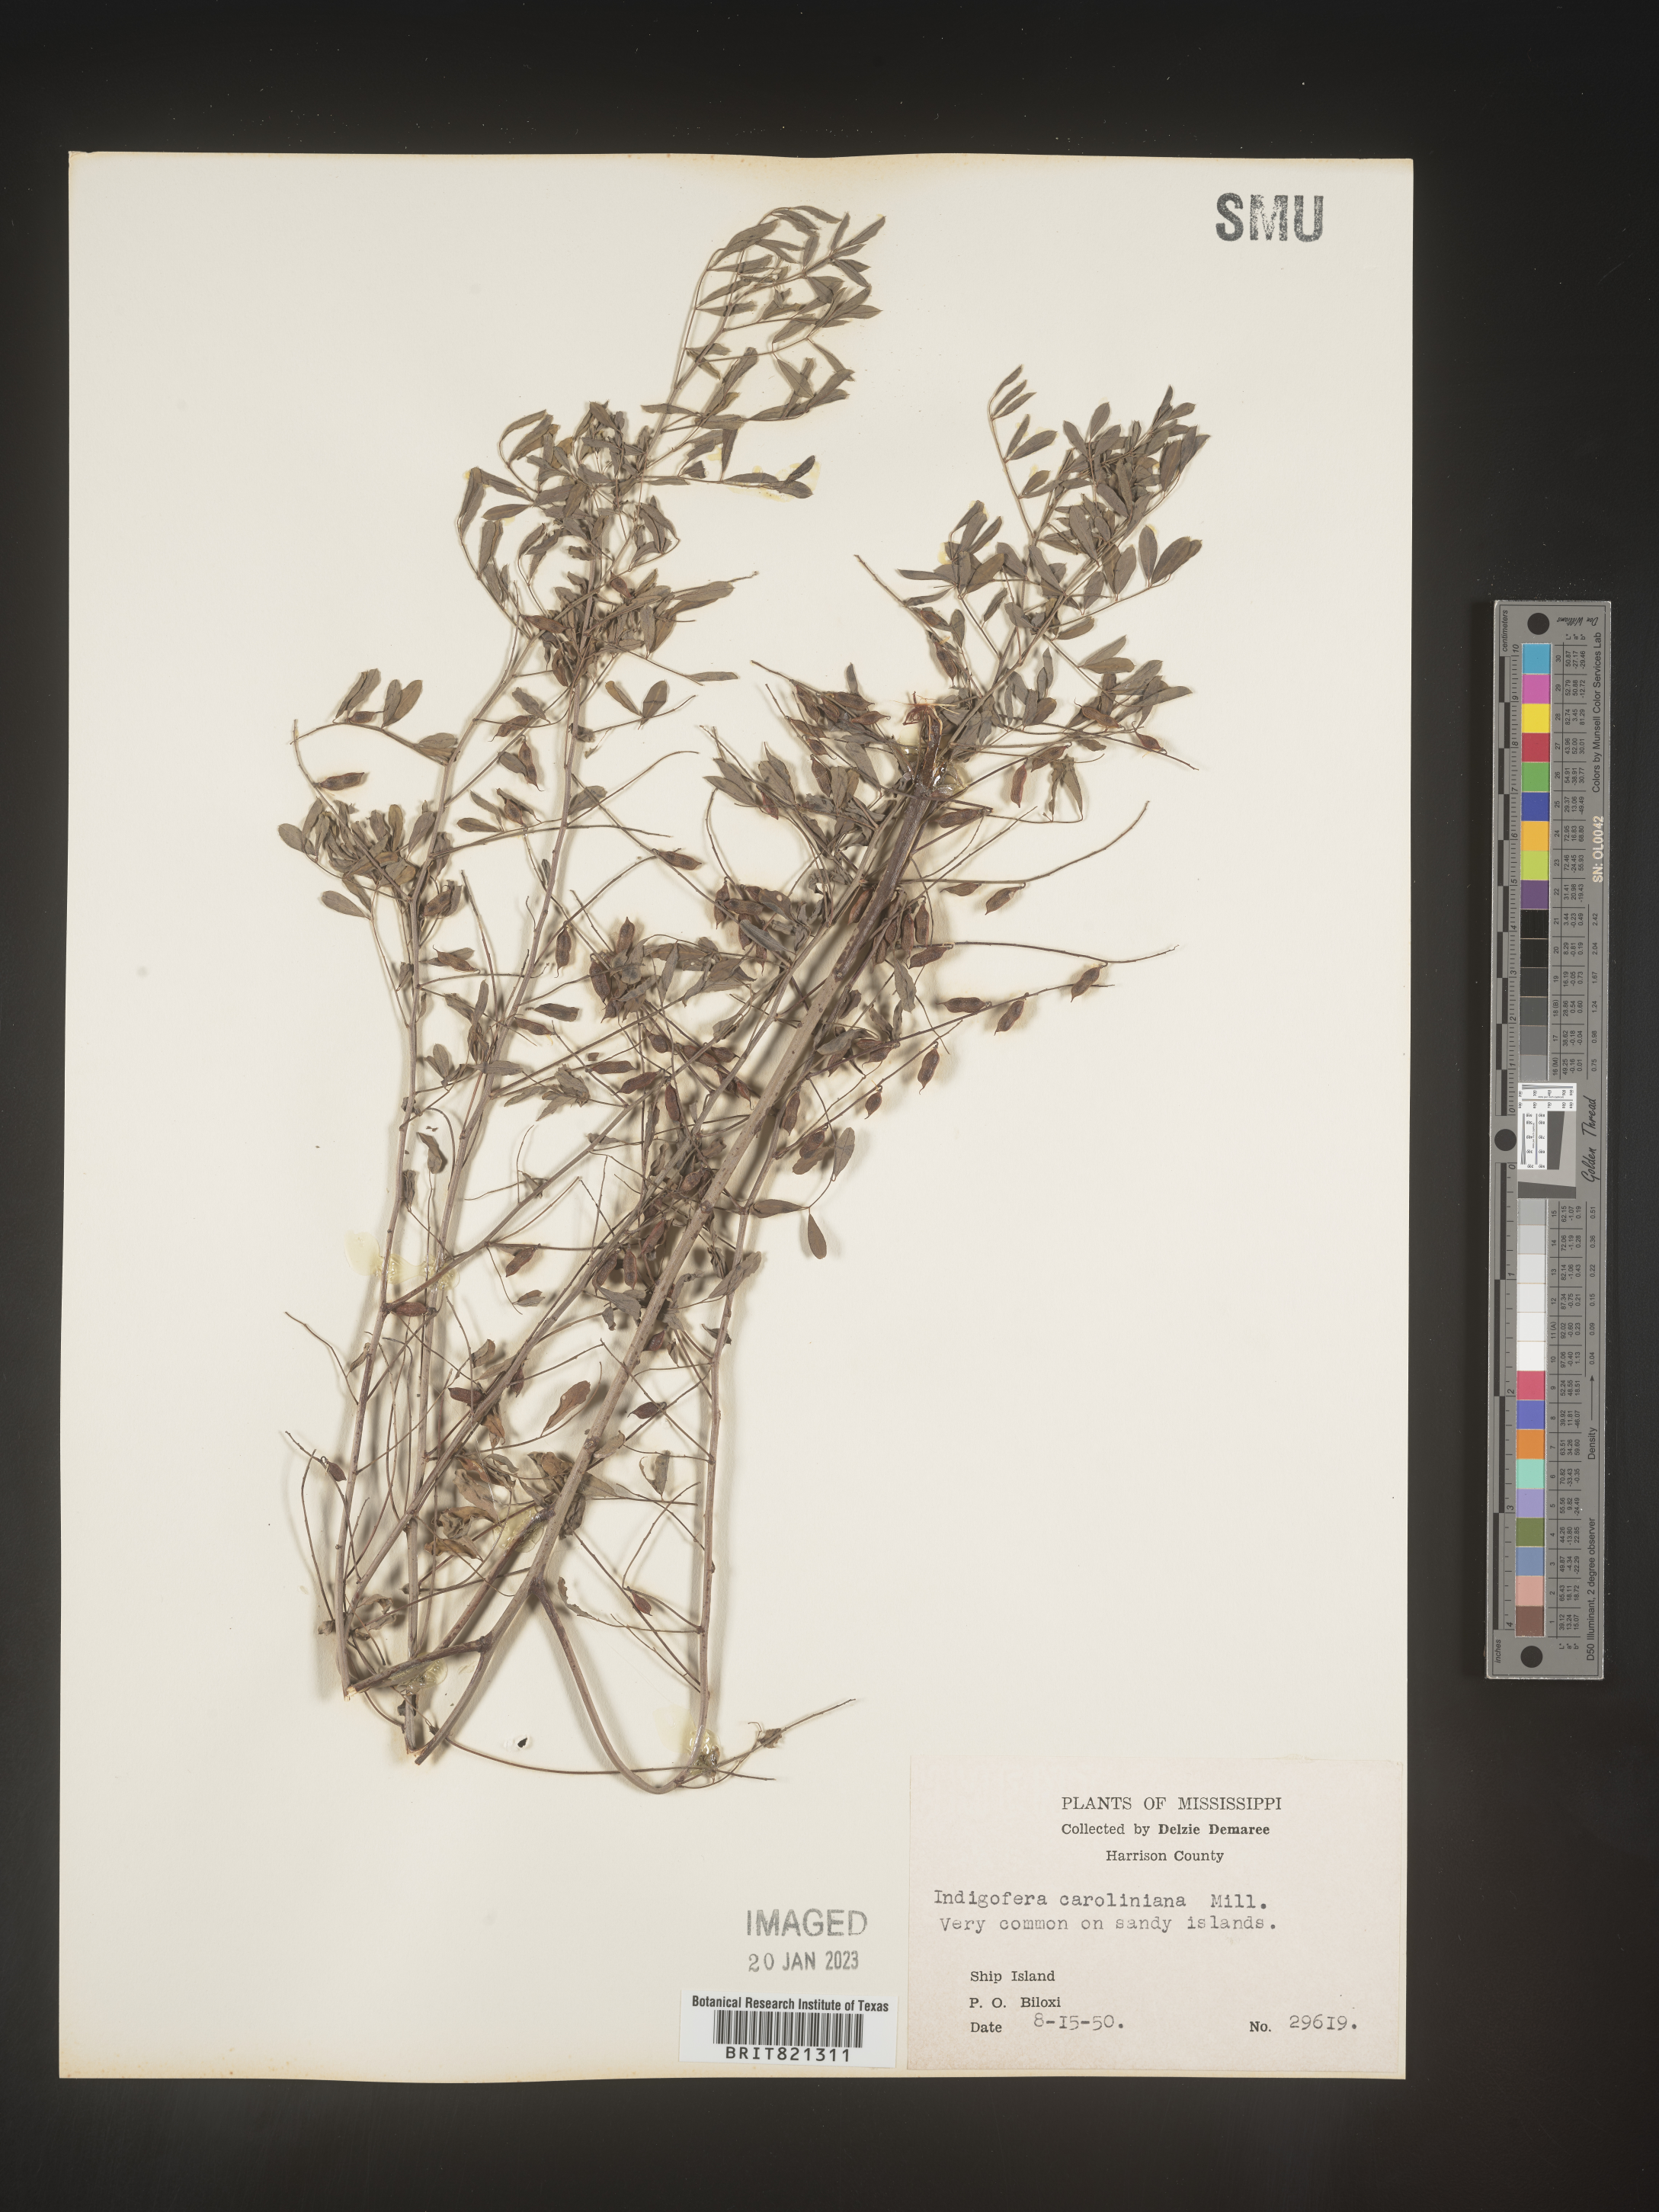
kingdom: Plantae
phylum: Tracheophyta
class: Magnoliopsida
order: Fabales
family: Fabaceae
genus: Indigofera
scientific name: Indigofera
